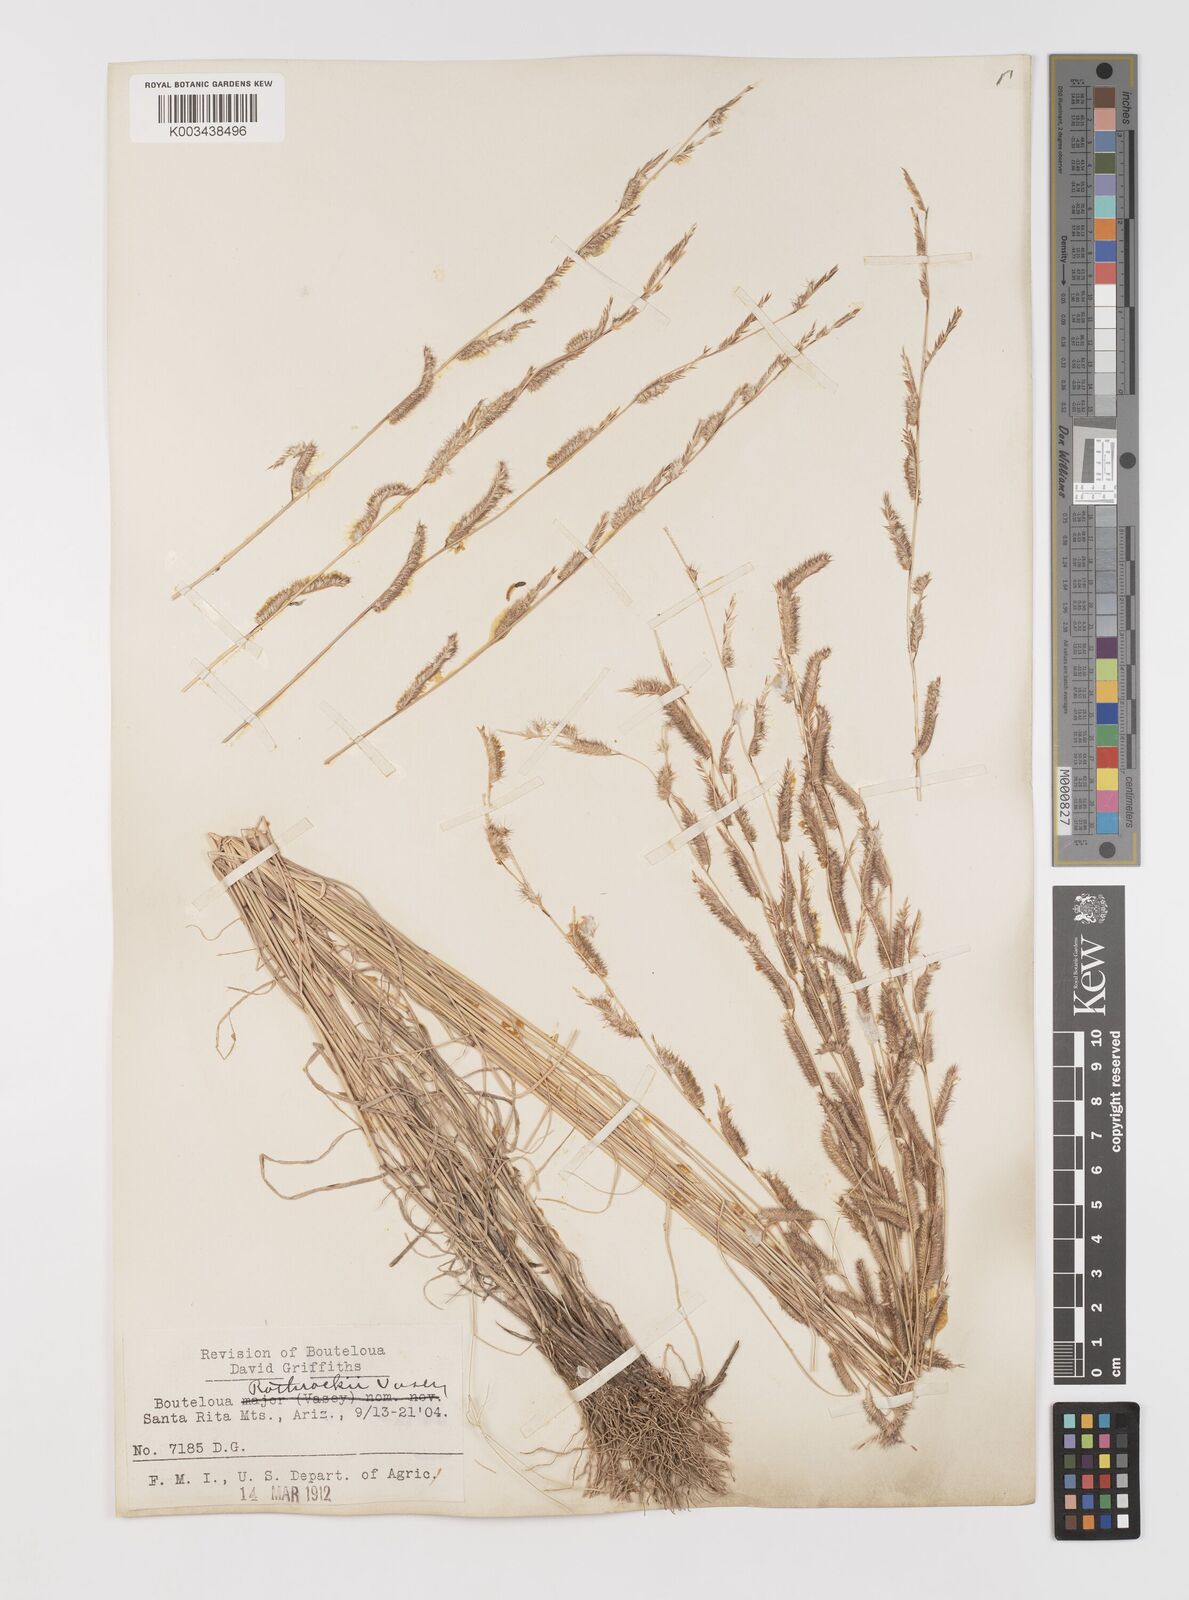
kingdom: Plantae
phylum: Tracheophyta
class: Liliopsida
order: Poales
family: Poaceae
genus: Bouteloua
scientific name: Bouteloua
